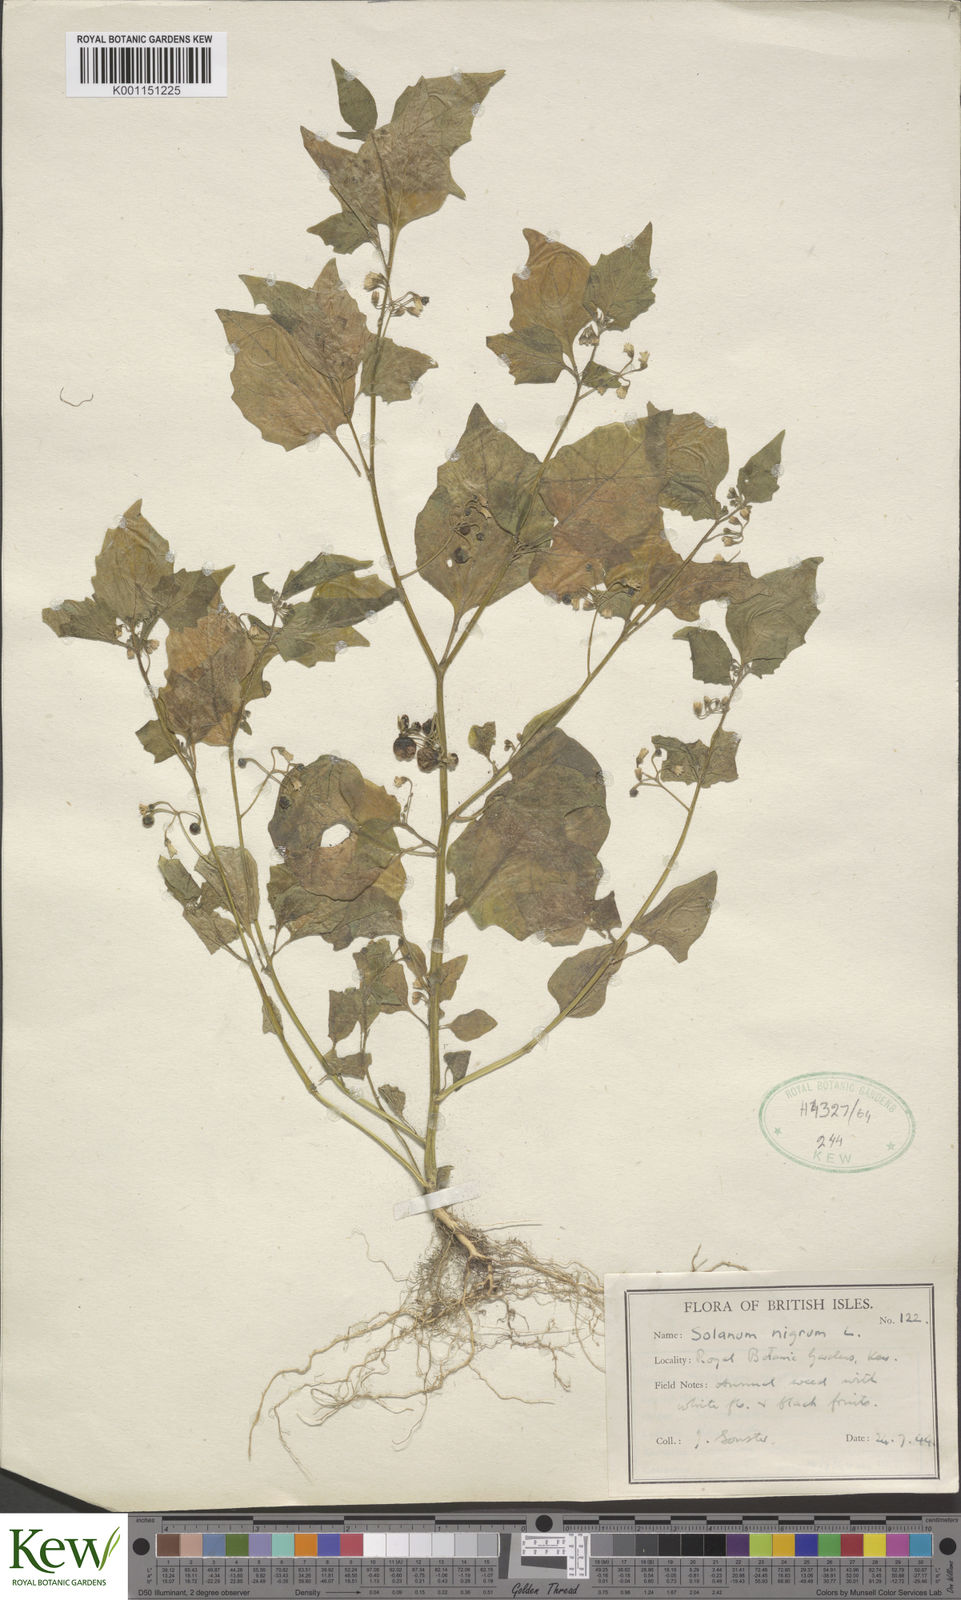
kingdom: Plantae
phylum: Tracheophyta
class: Magnoliopsida
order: Solanales
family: Solanaceae
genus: Solanum
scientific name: Solanum nigrum
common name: Black nightshade
